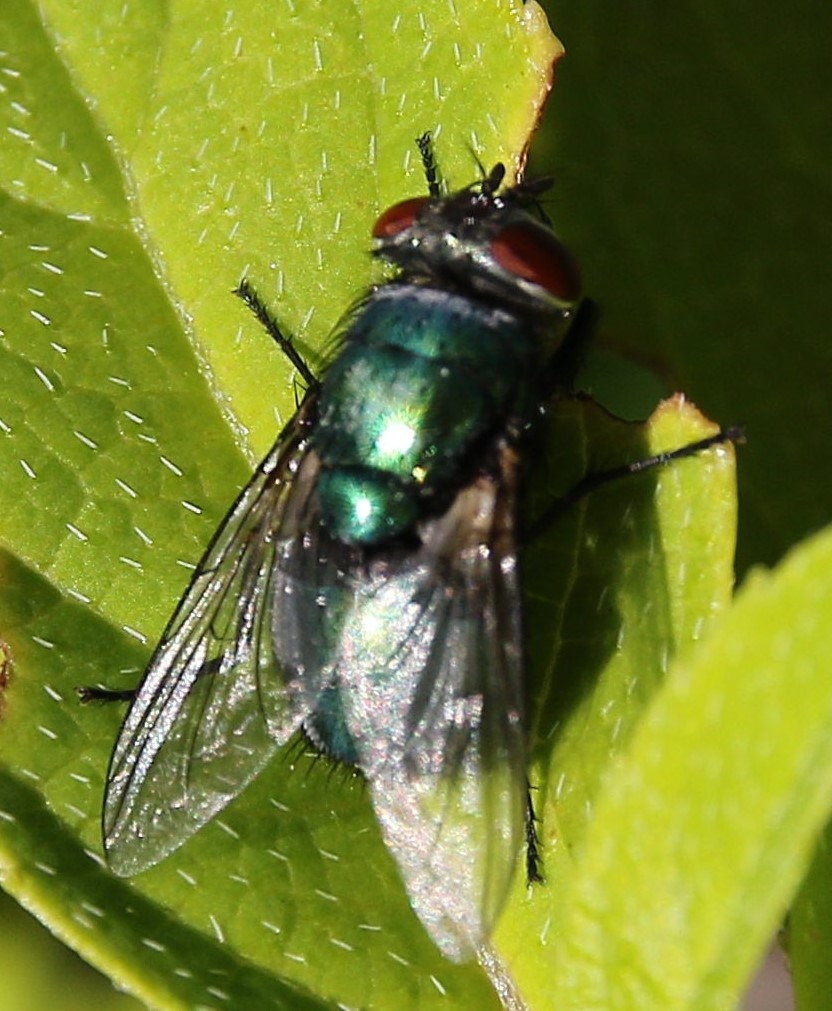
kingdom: Animalia
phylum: Arthropoda
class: Insecta
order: Diptera
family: Calliphoridae
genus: Lucilia
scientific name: Lucilia sericata
